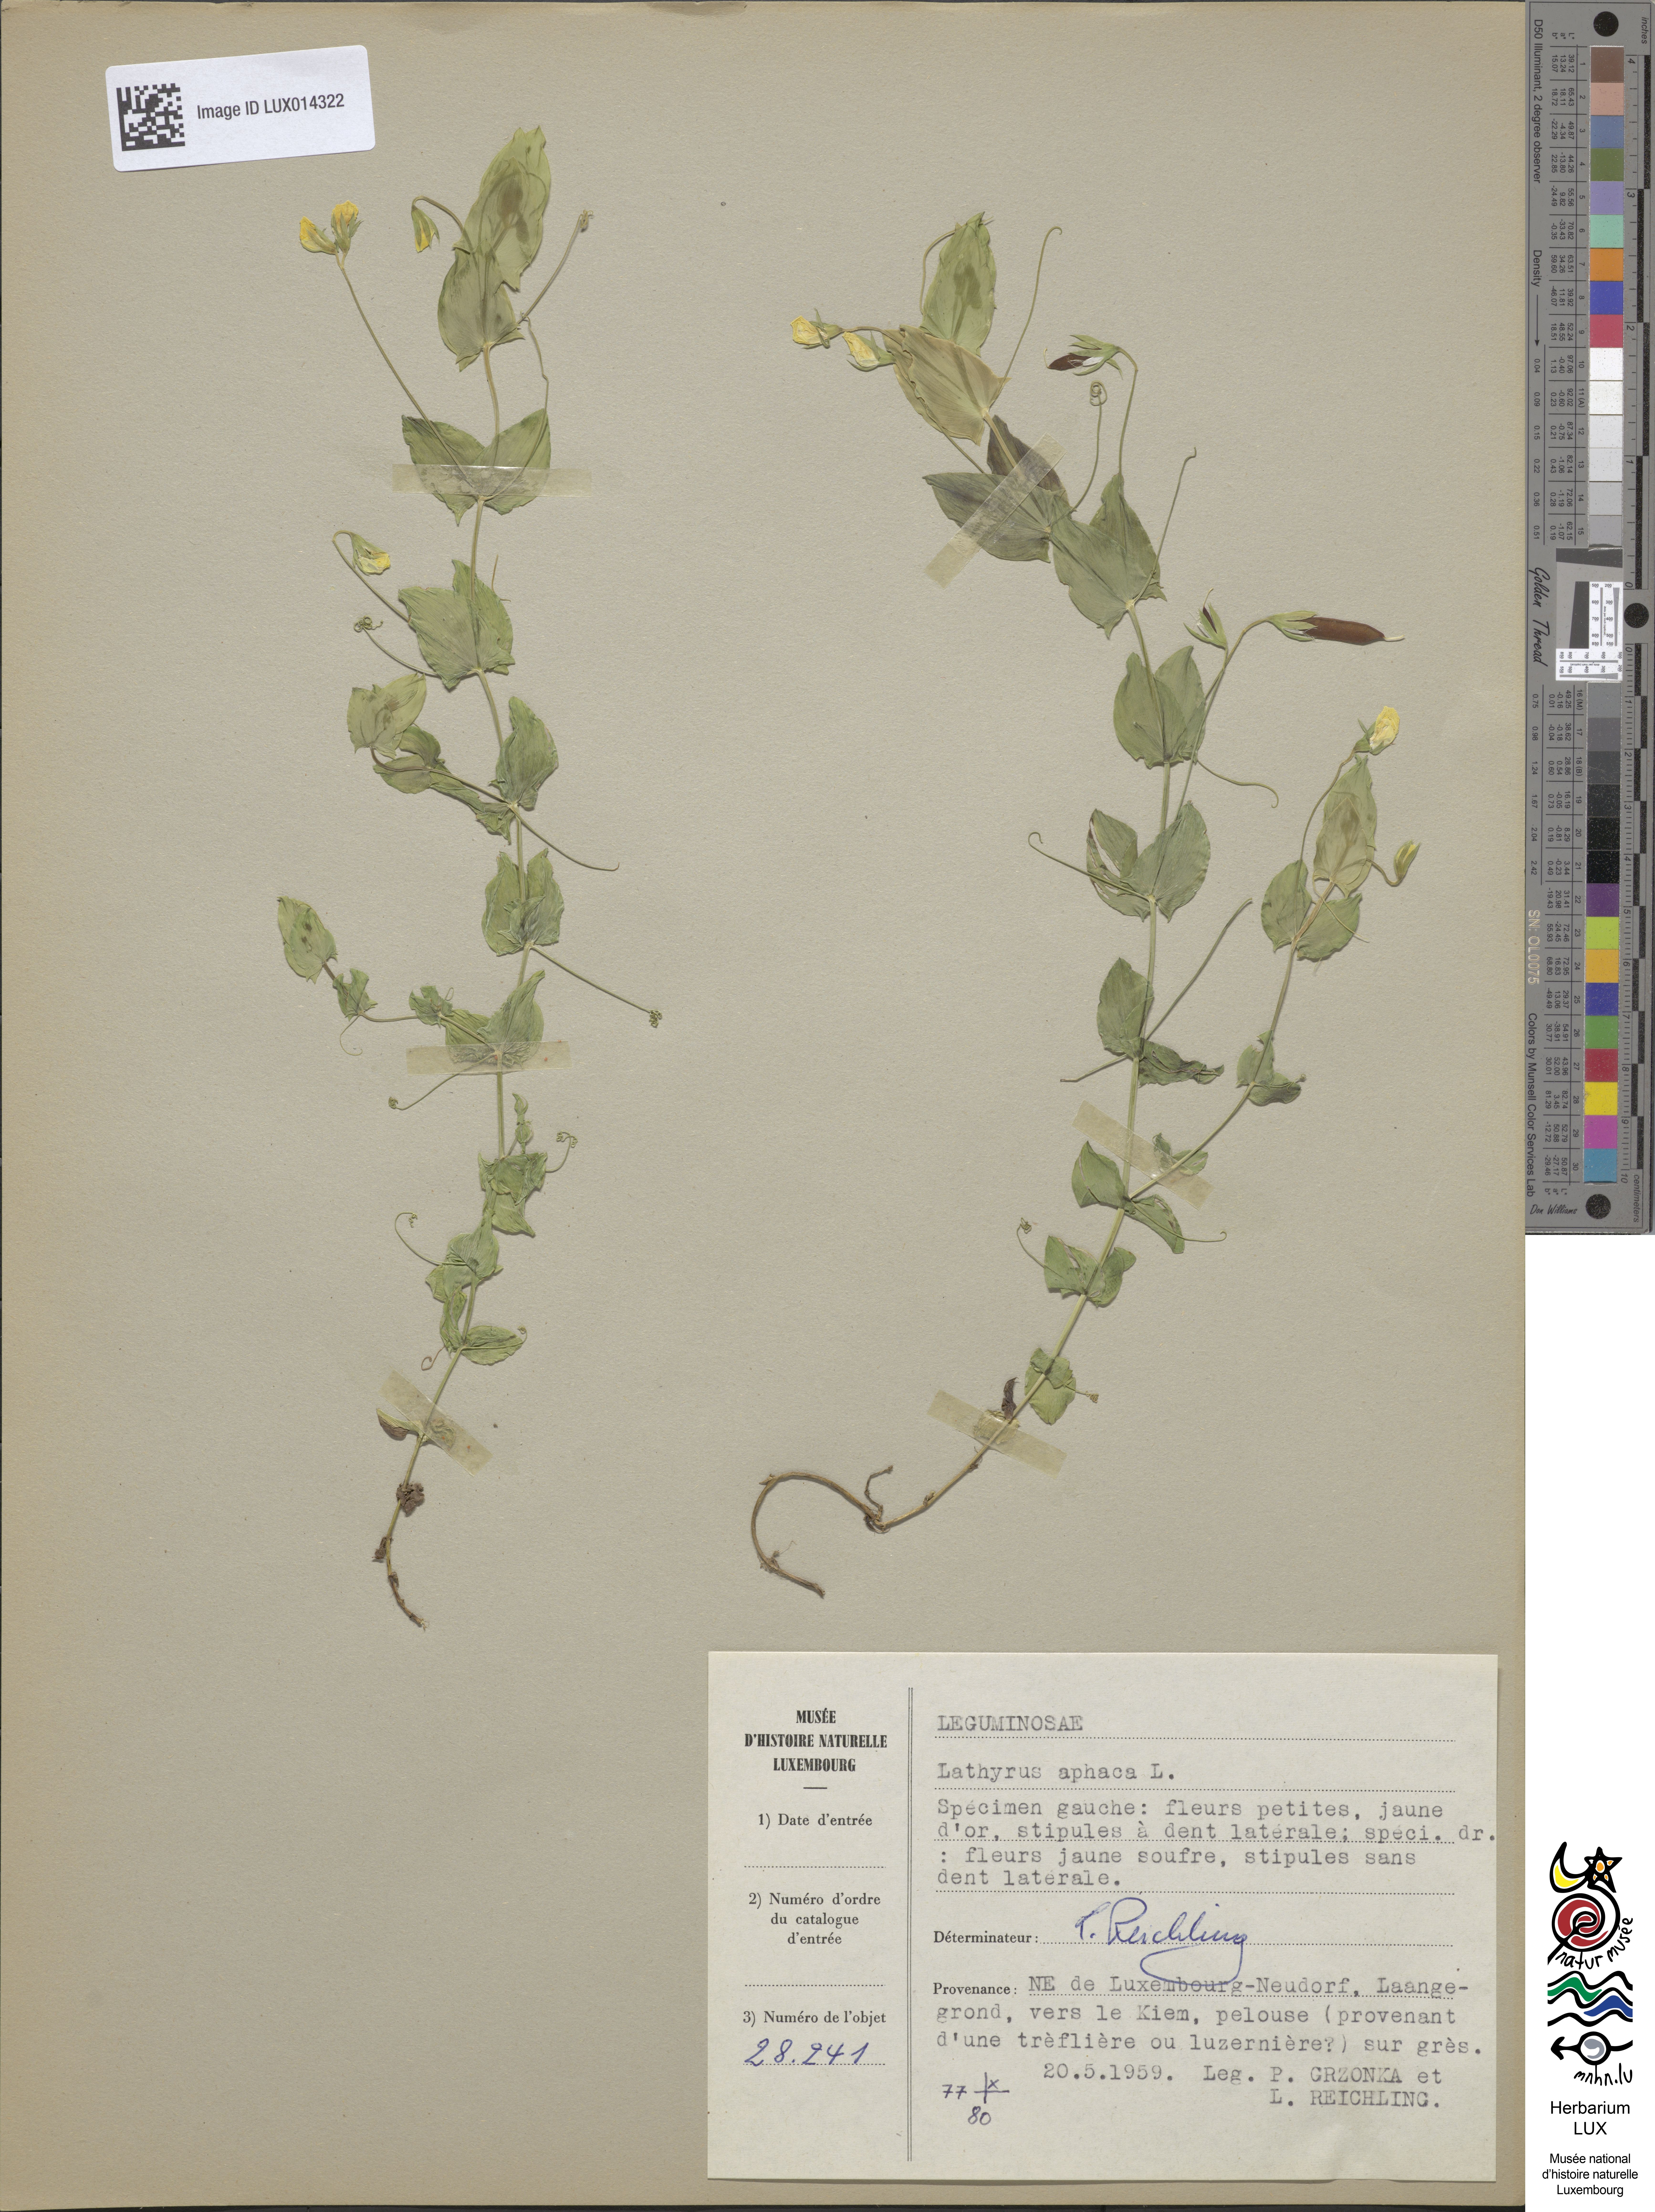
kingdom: Plantae
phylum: Tracheophyta
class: Magnoliopsida
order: Fabales
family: Fabaceae
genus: Lathyrus
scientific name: Lathyrus aphaca
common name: Yellow vetchling
